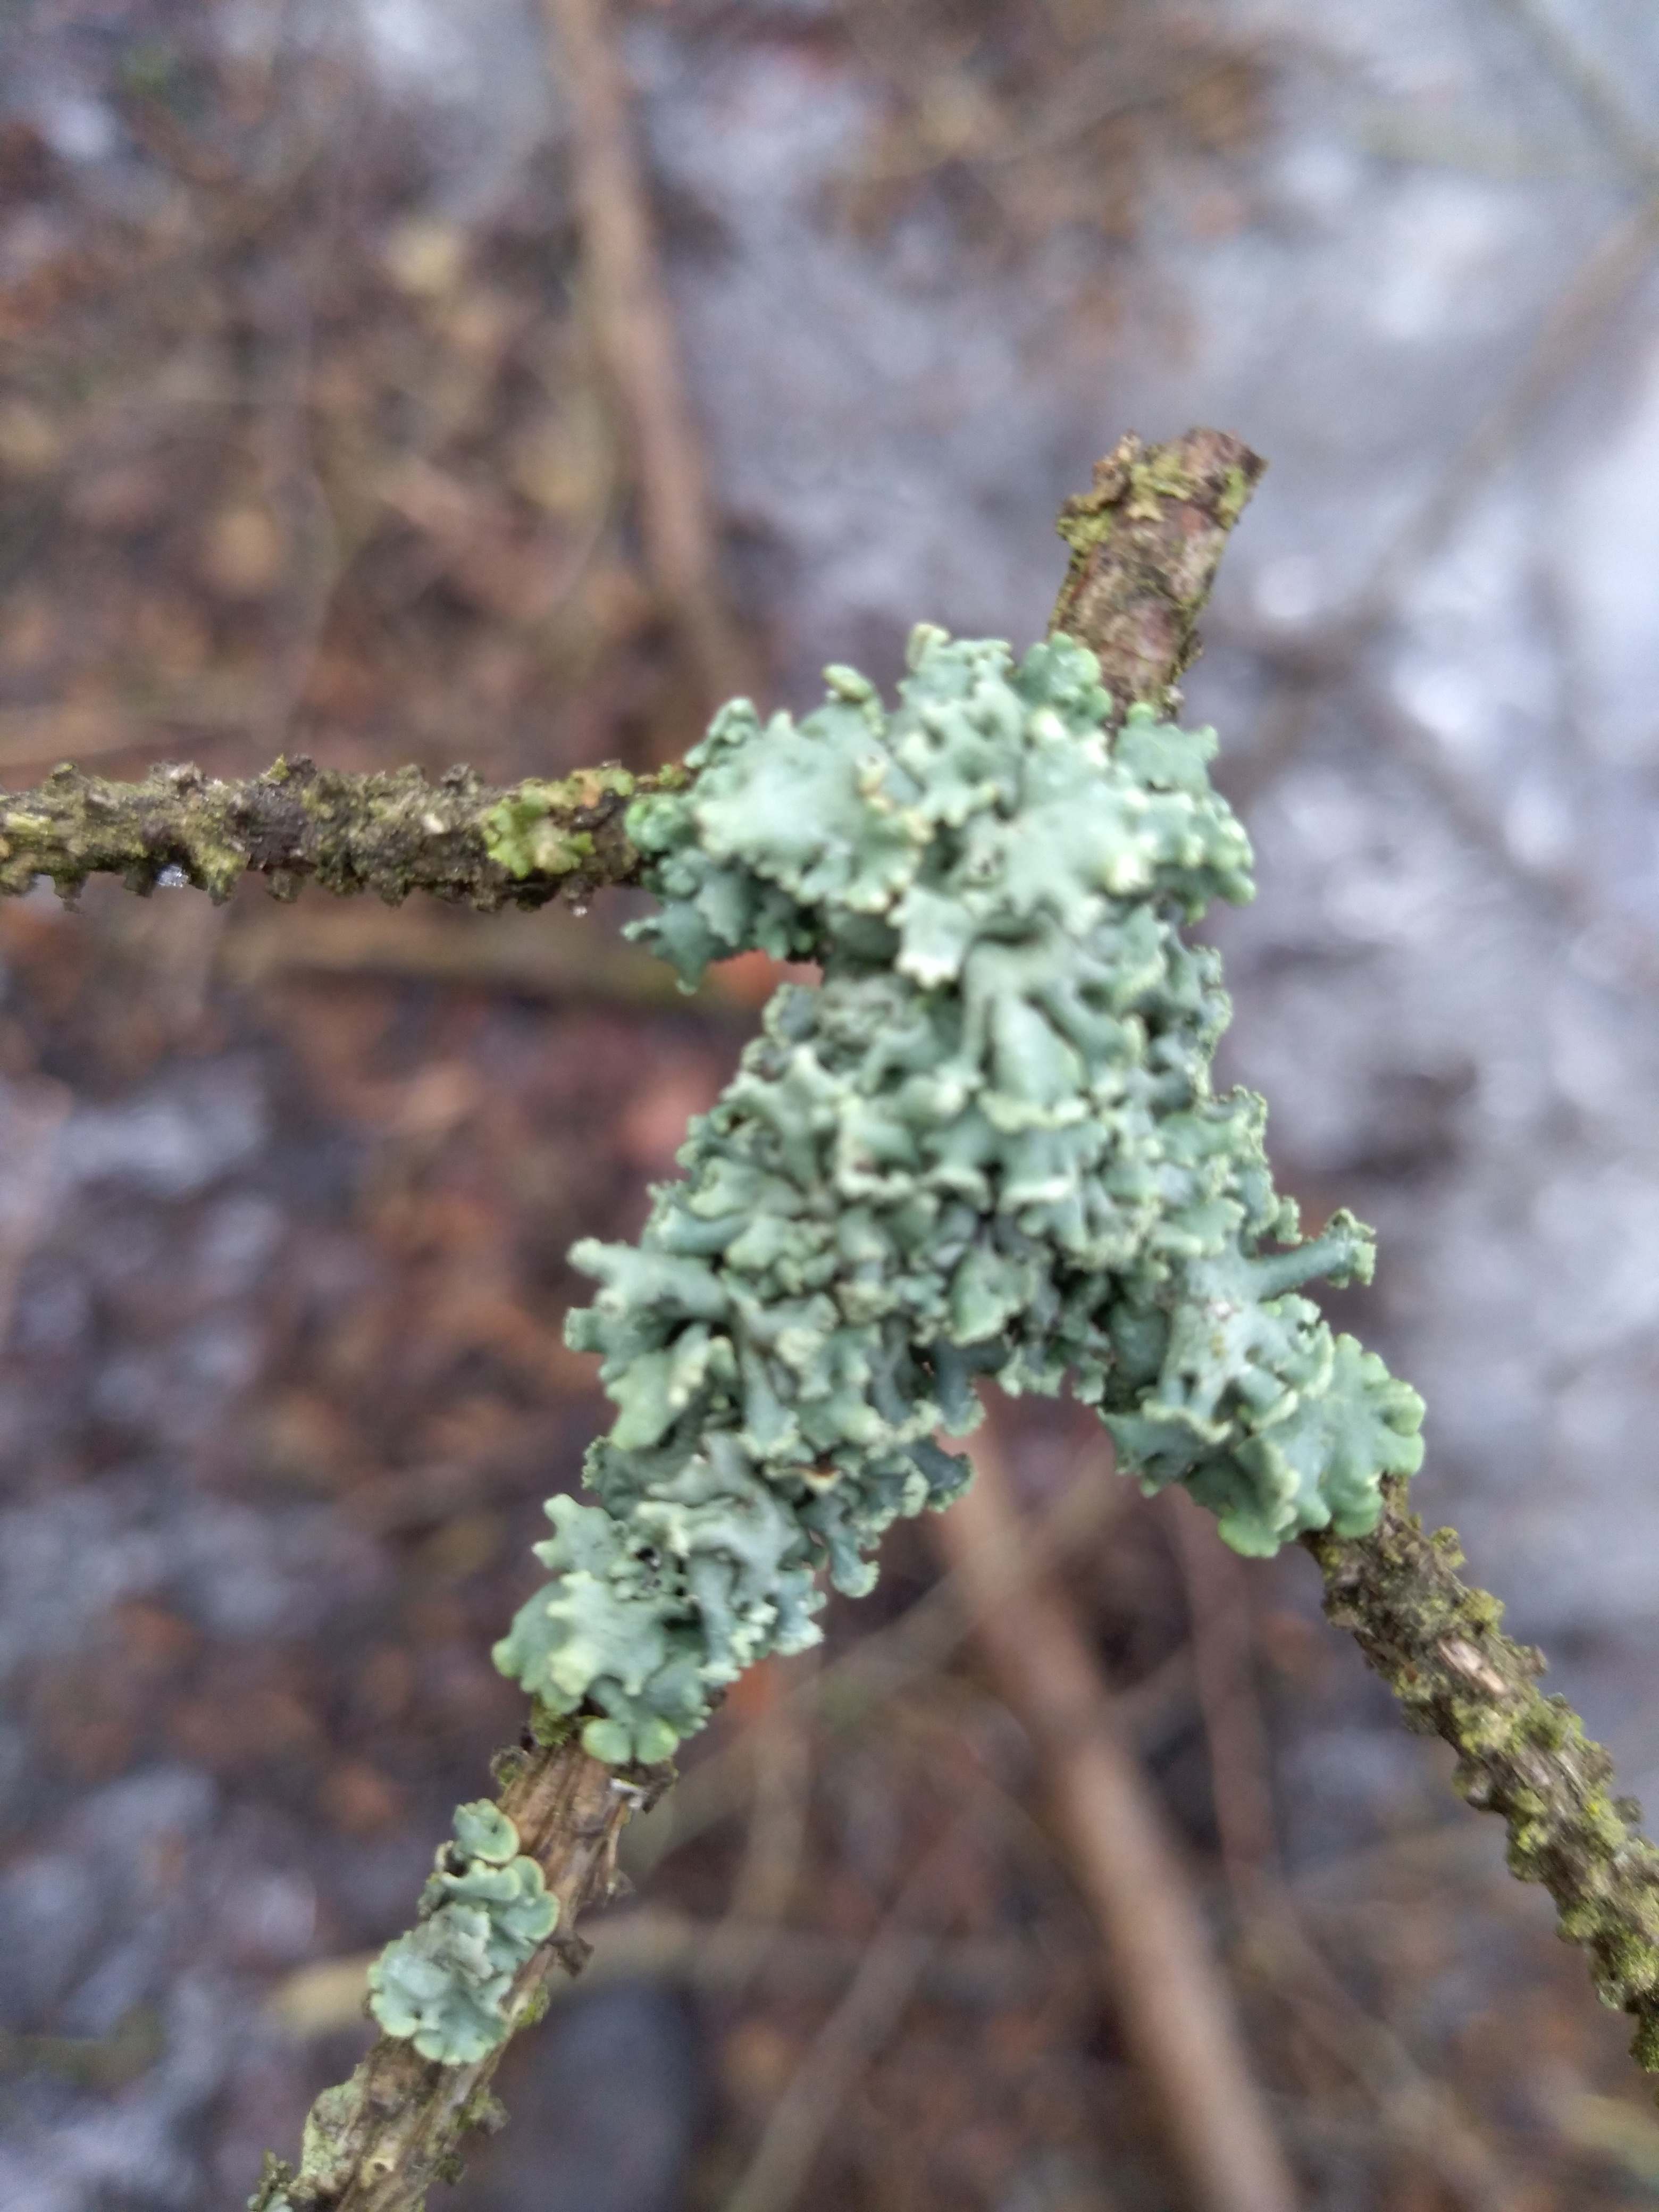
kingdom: Fungi
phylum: Ascomycota
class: Lecanoromycetes
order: Lecanorales
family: Parmeliaceae
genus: Hypogymnia
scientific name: Hypogymnia physodes
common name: almindelig kvistlav
